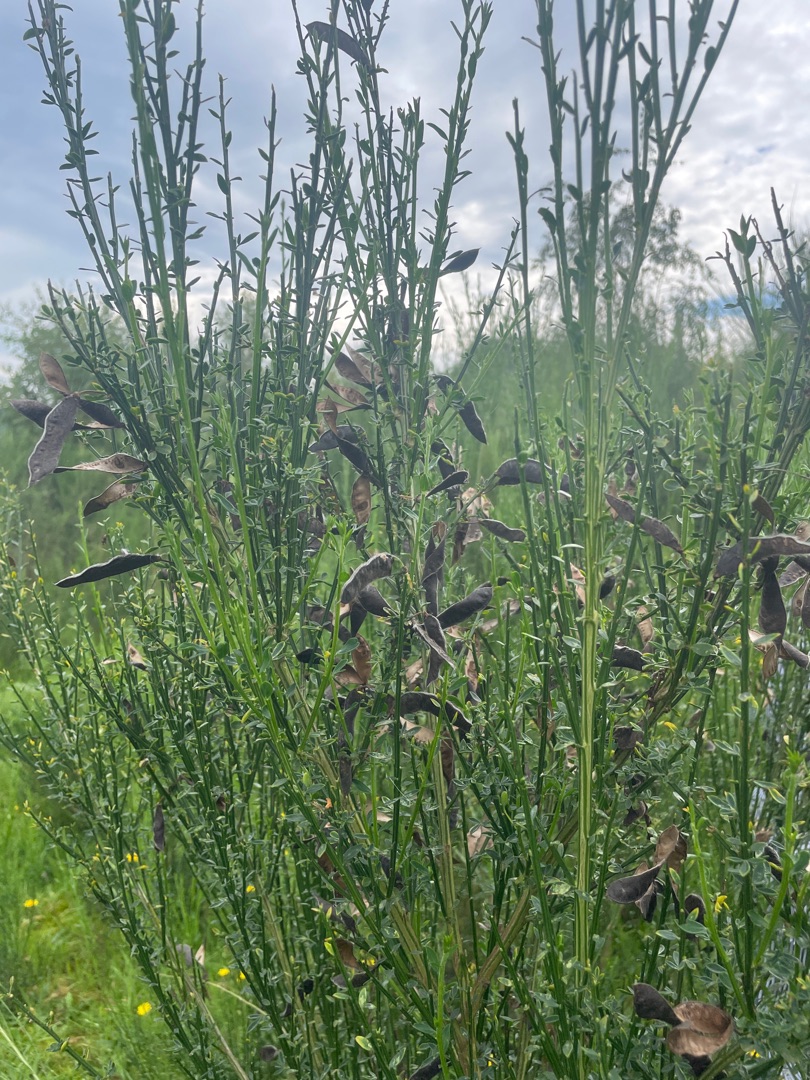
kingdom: Plantae
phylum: Tracheophyta
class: Magnoliopsida
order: Fabales
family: Fabaceae
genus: Cytisus
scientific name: Cytisus scoparius
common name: Almindelig gyvel
